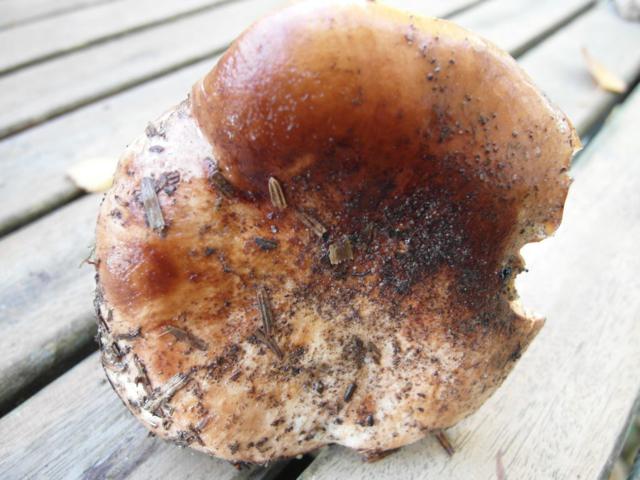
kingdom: Fungi
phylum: Basidiomycota
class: Agaricomycetes
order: Agaricales
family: Tricholomataceae
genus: Tricholoma
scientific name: Tricholoma stans
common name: stolt ridderhat
